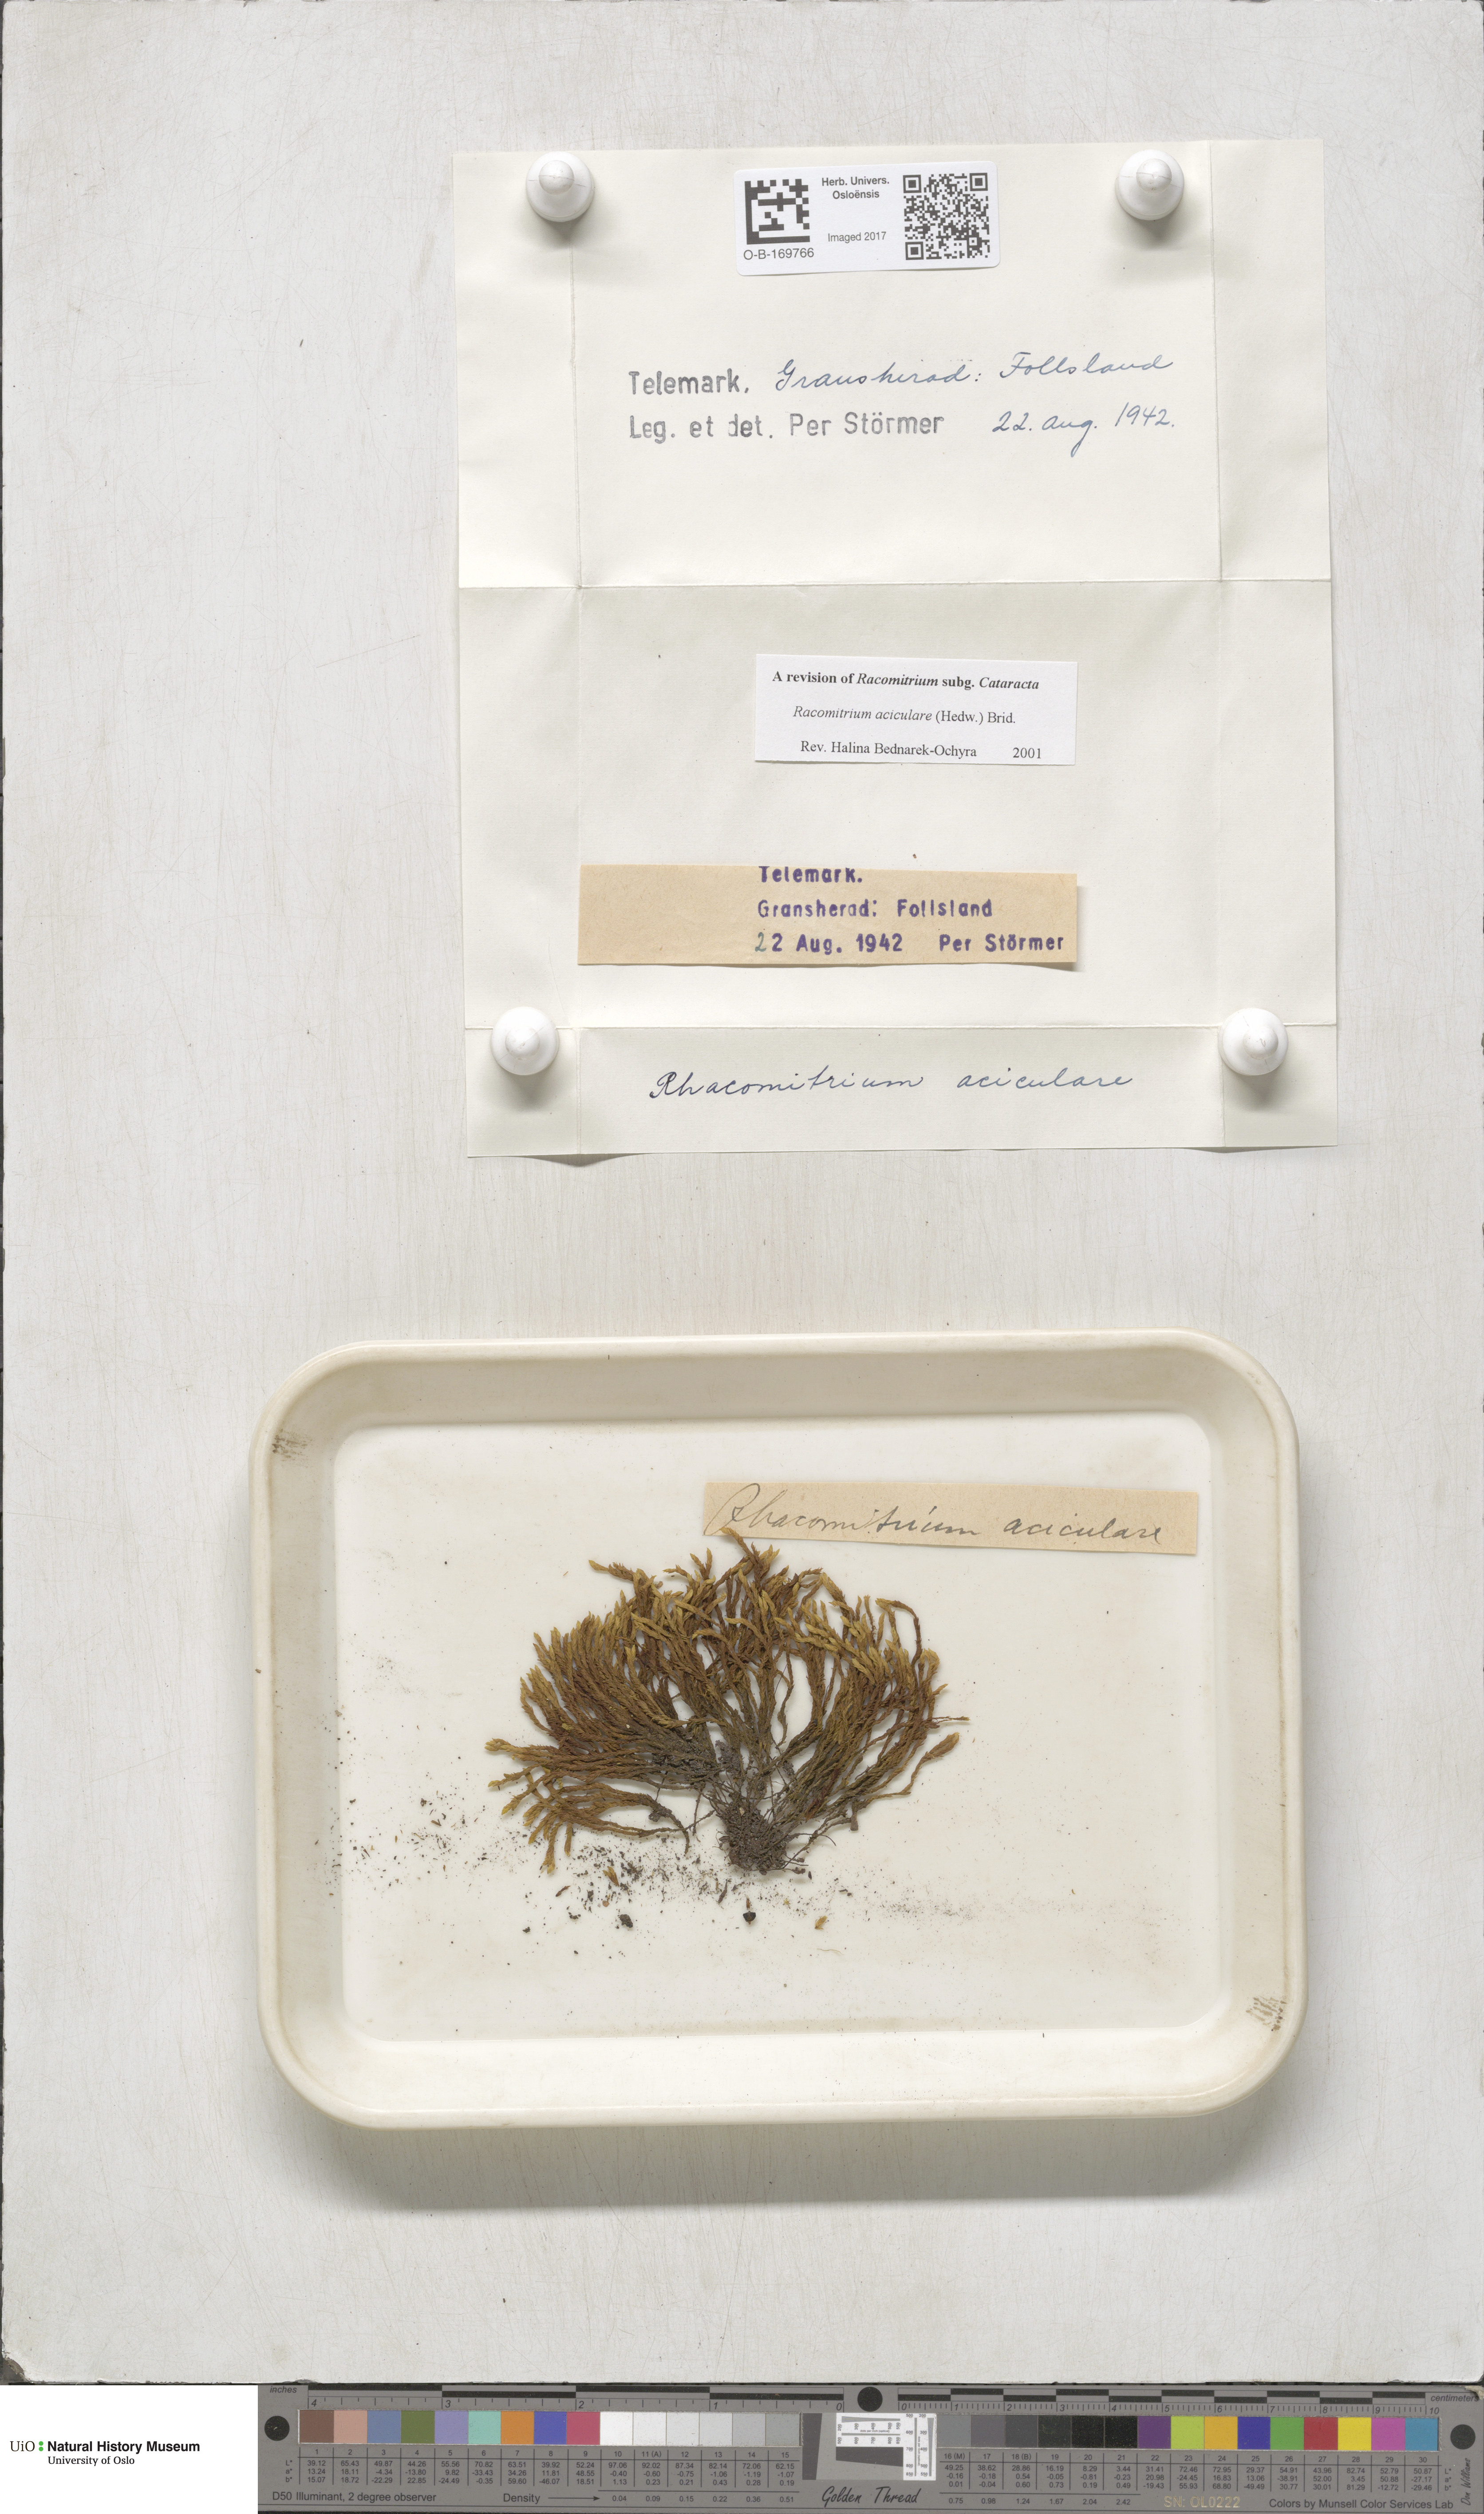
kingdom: Plantae
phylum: Bryophyta
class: Bryopsida
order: Grimmiales
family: Grimmiaceae
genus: Codriophorus
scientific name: Codriophorus acicularis
